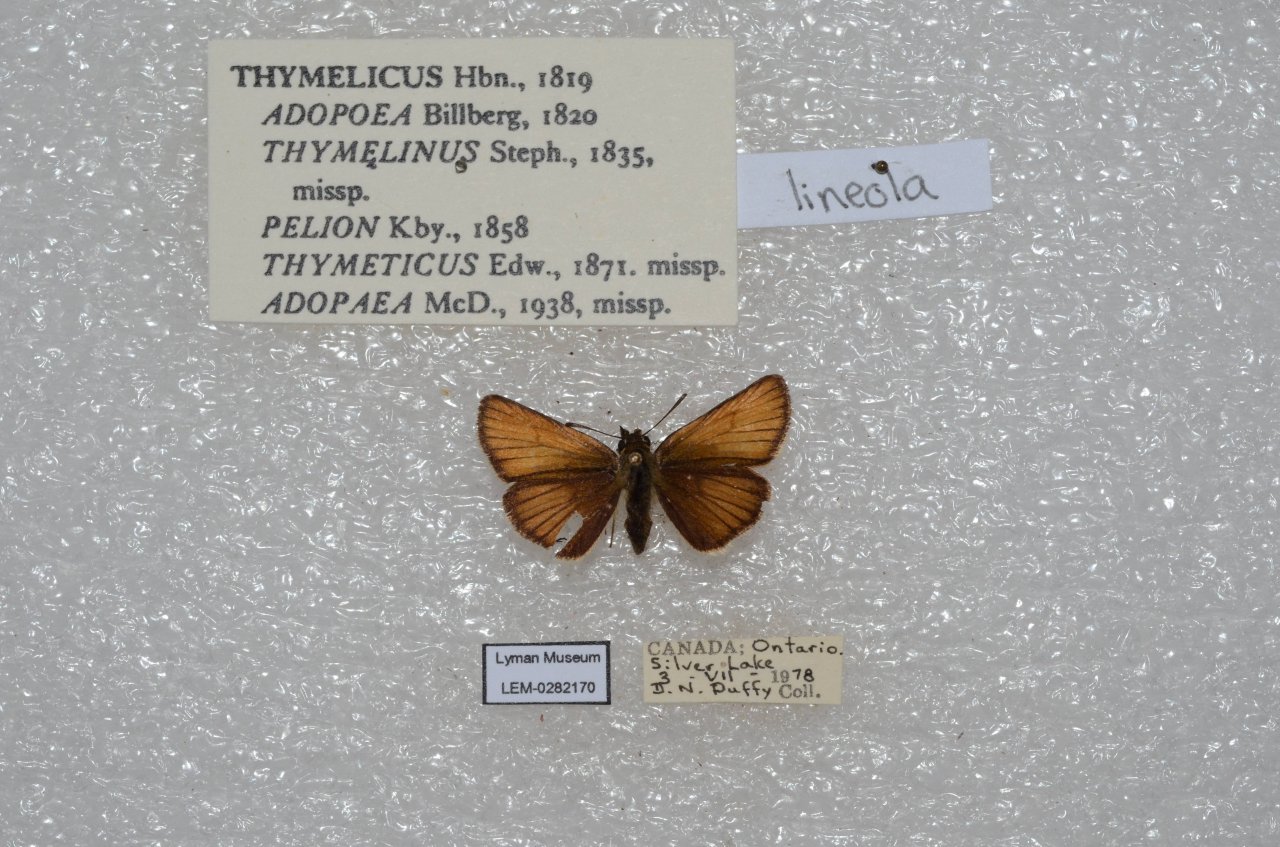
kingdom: Animalia
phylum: Arthropoda
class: Insecta
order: Lepidoptera
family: Hesperiidae
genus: Thymelicus
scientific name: Thymelicus lineola
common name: European Skipper
